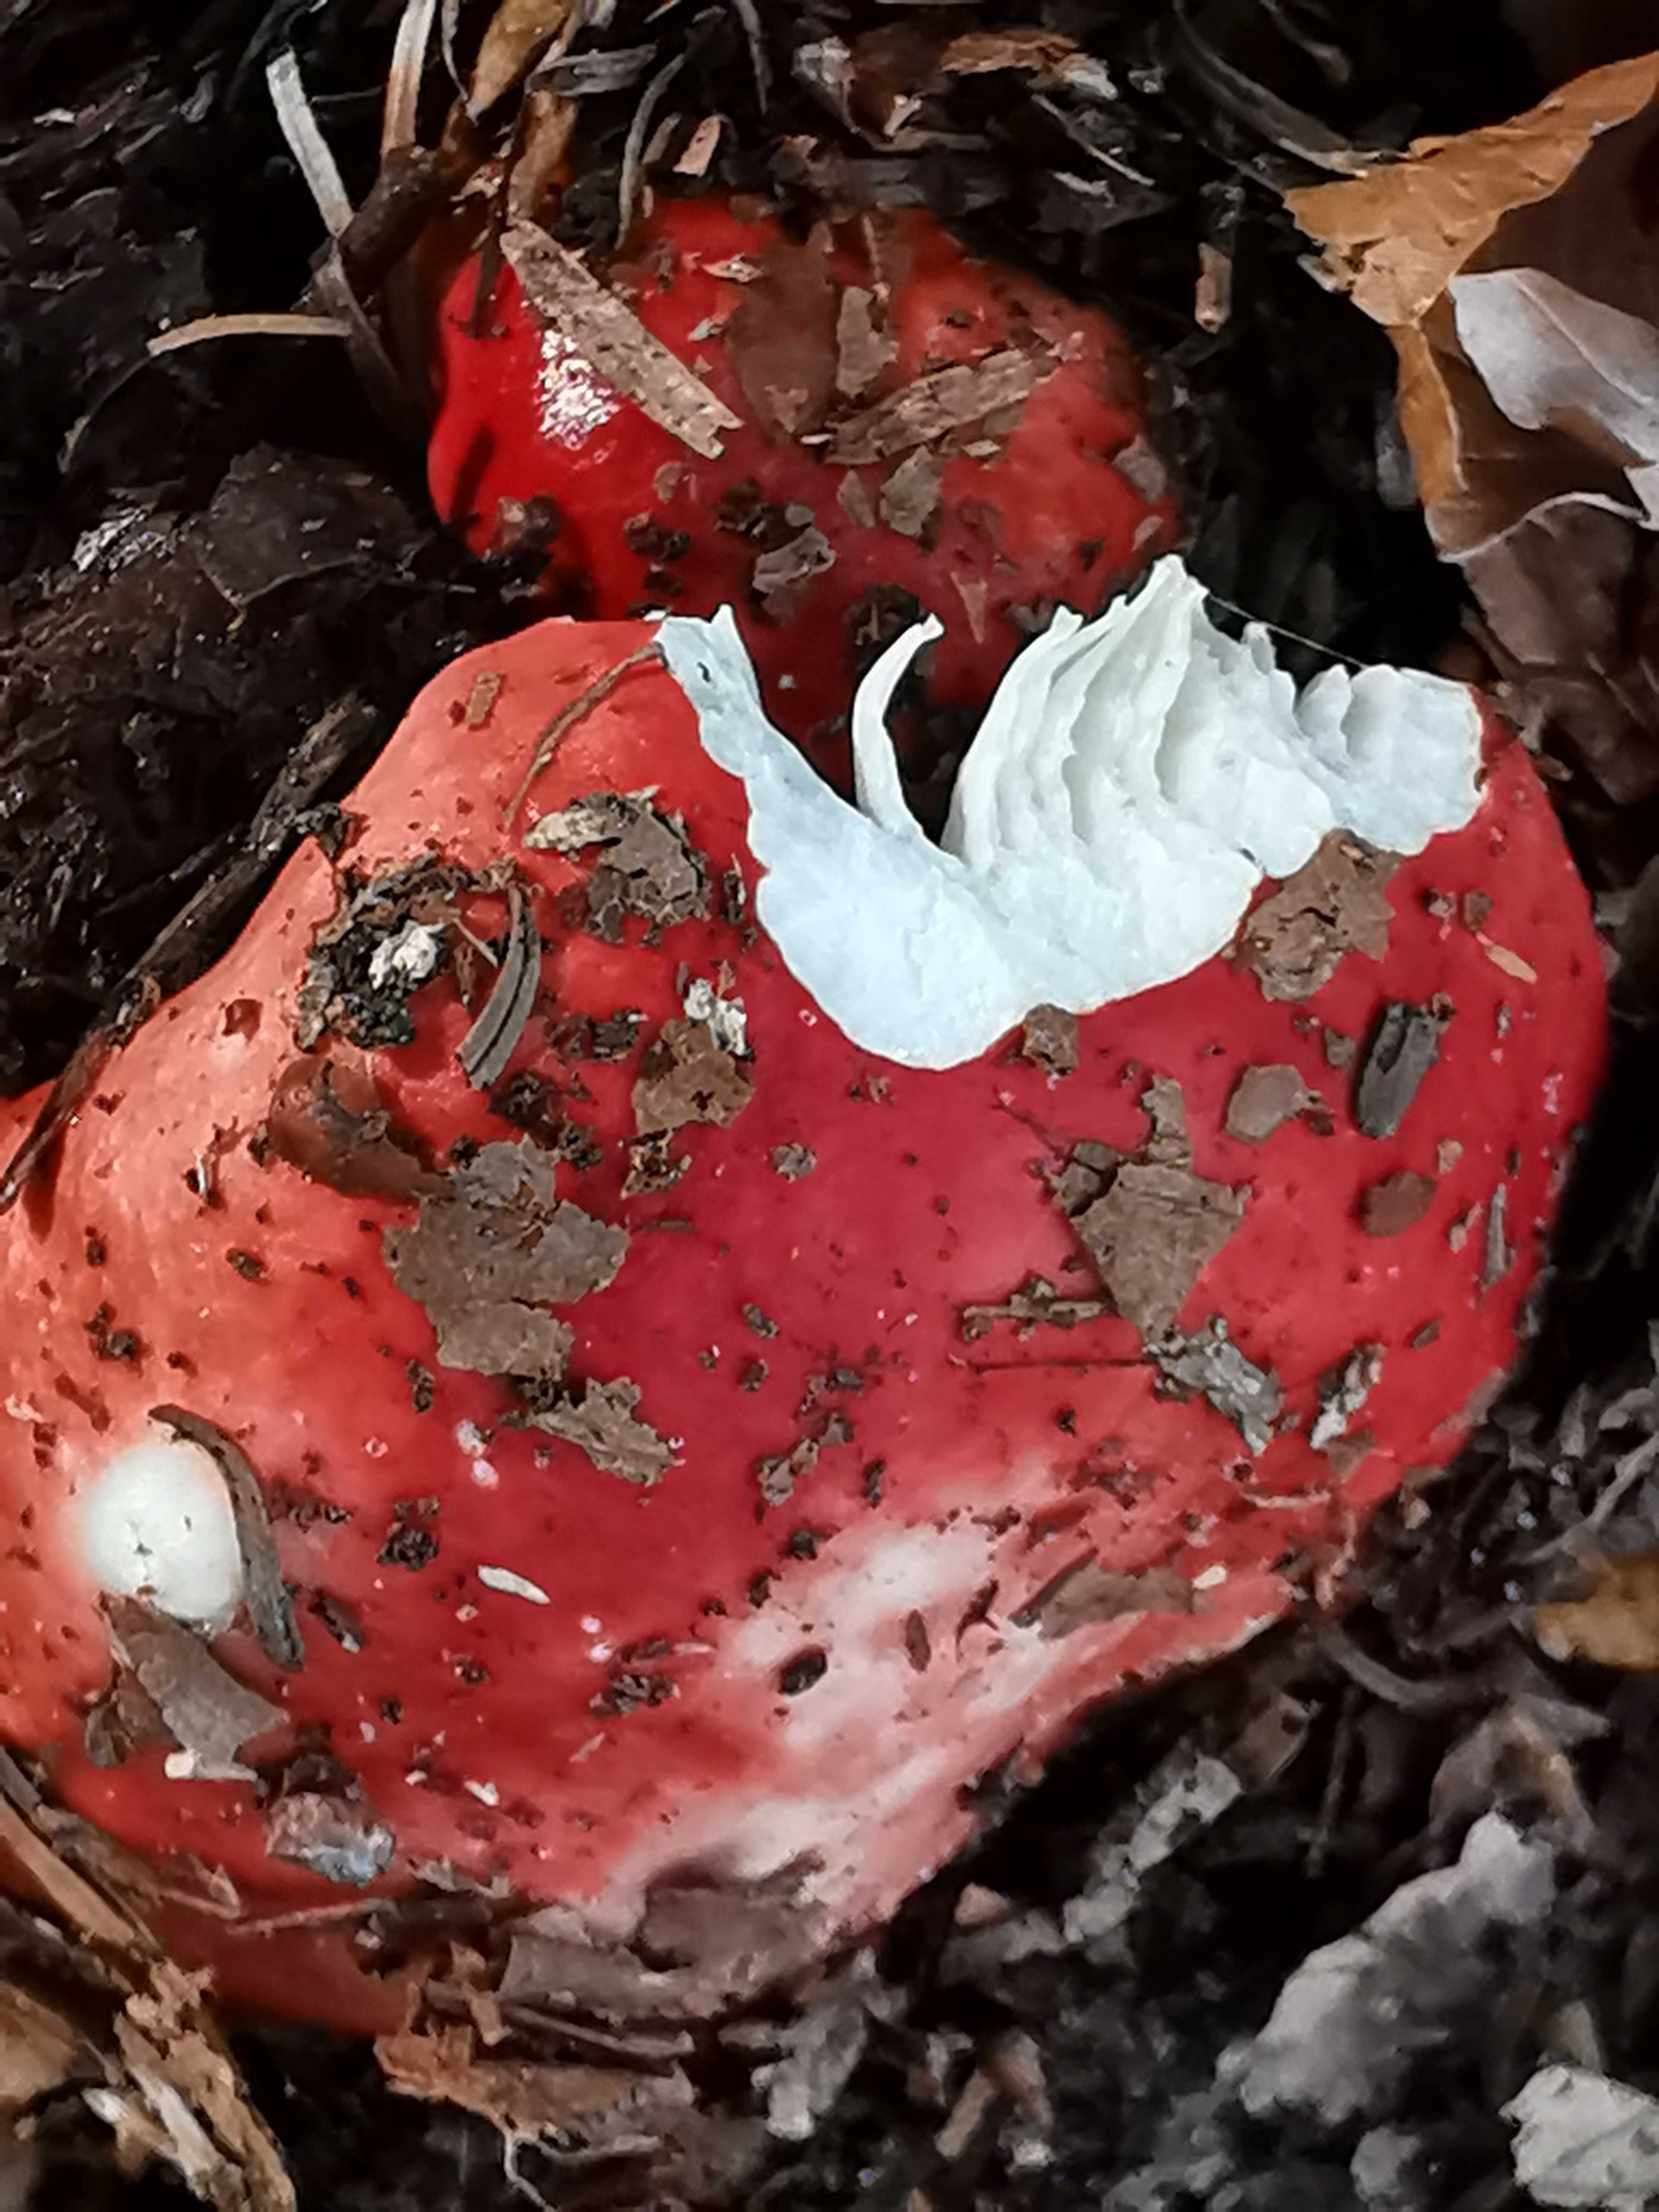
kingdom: Fungi
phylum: Basidiomycota
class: Agaricomycetes
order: Russulales
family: Russulaceae
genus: Russula
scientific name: Russula emetica
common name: stor gift-skørhat
